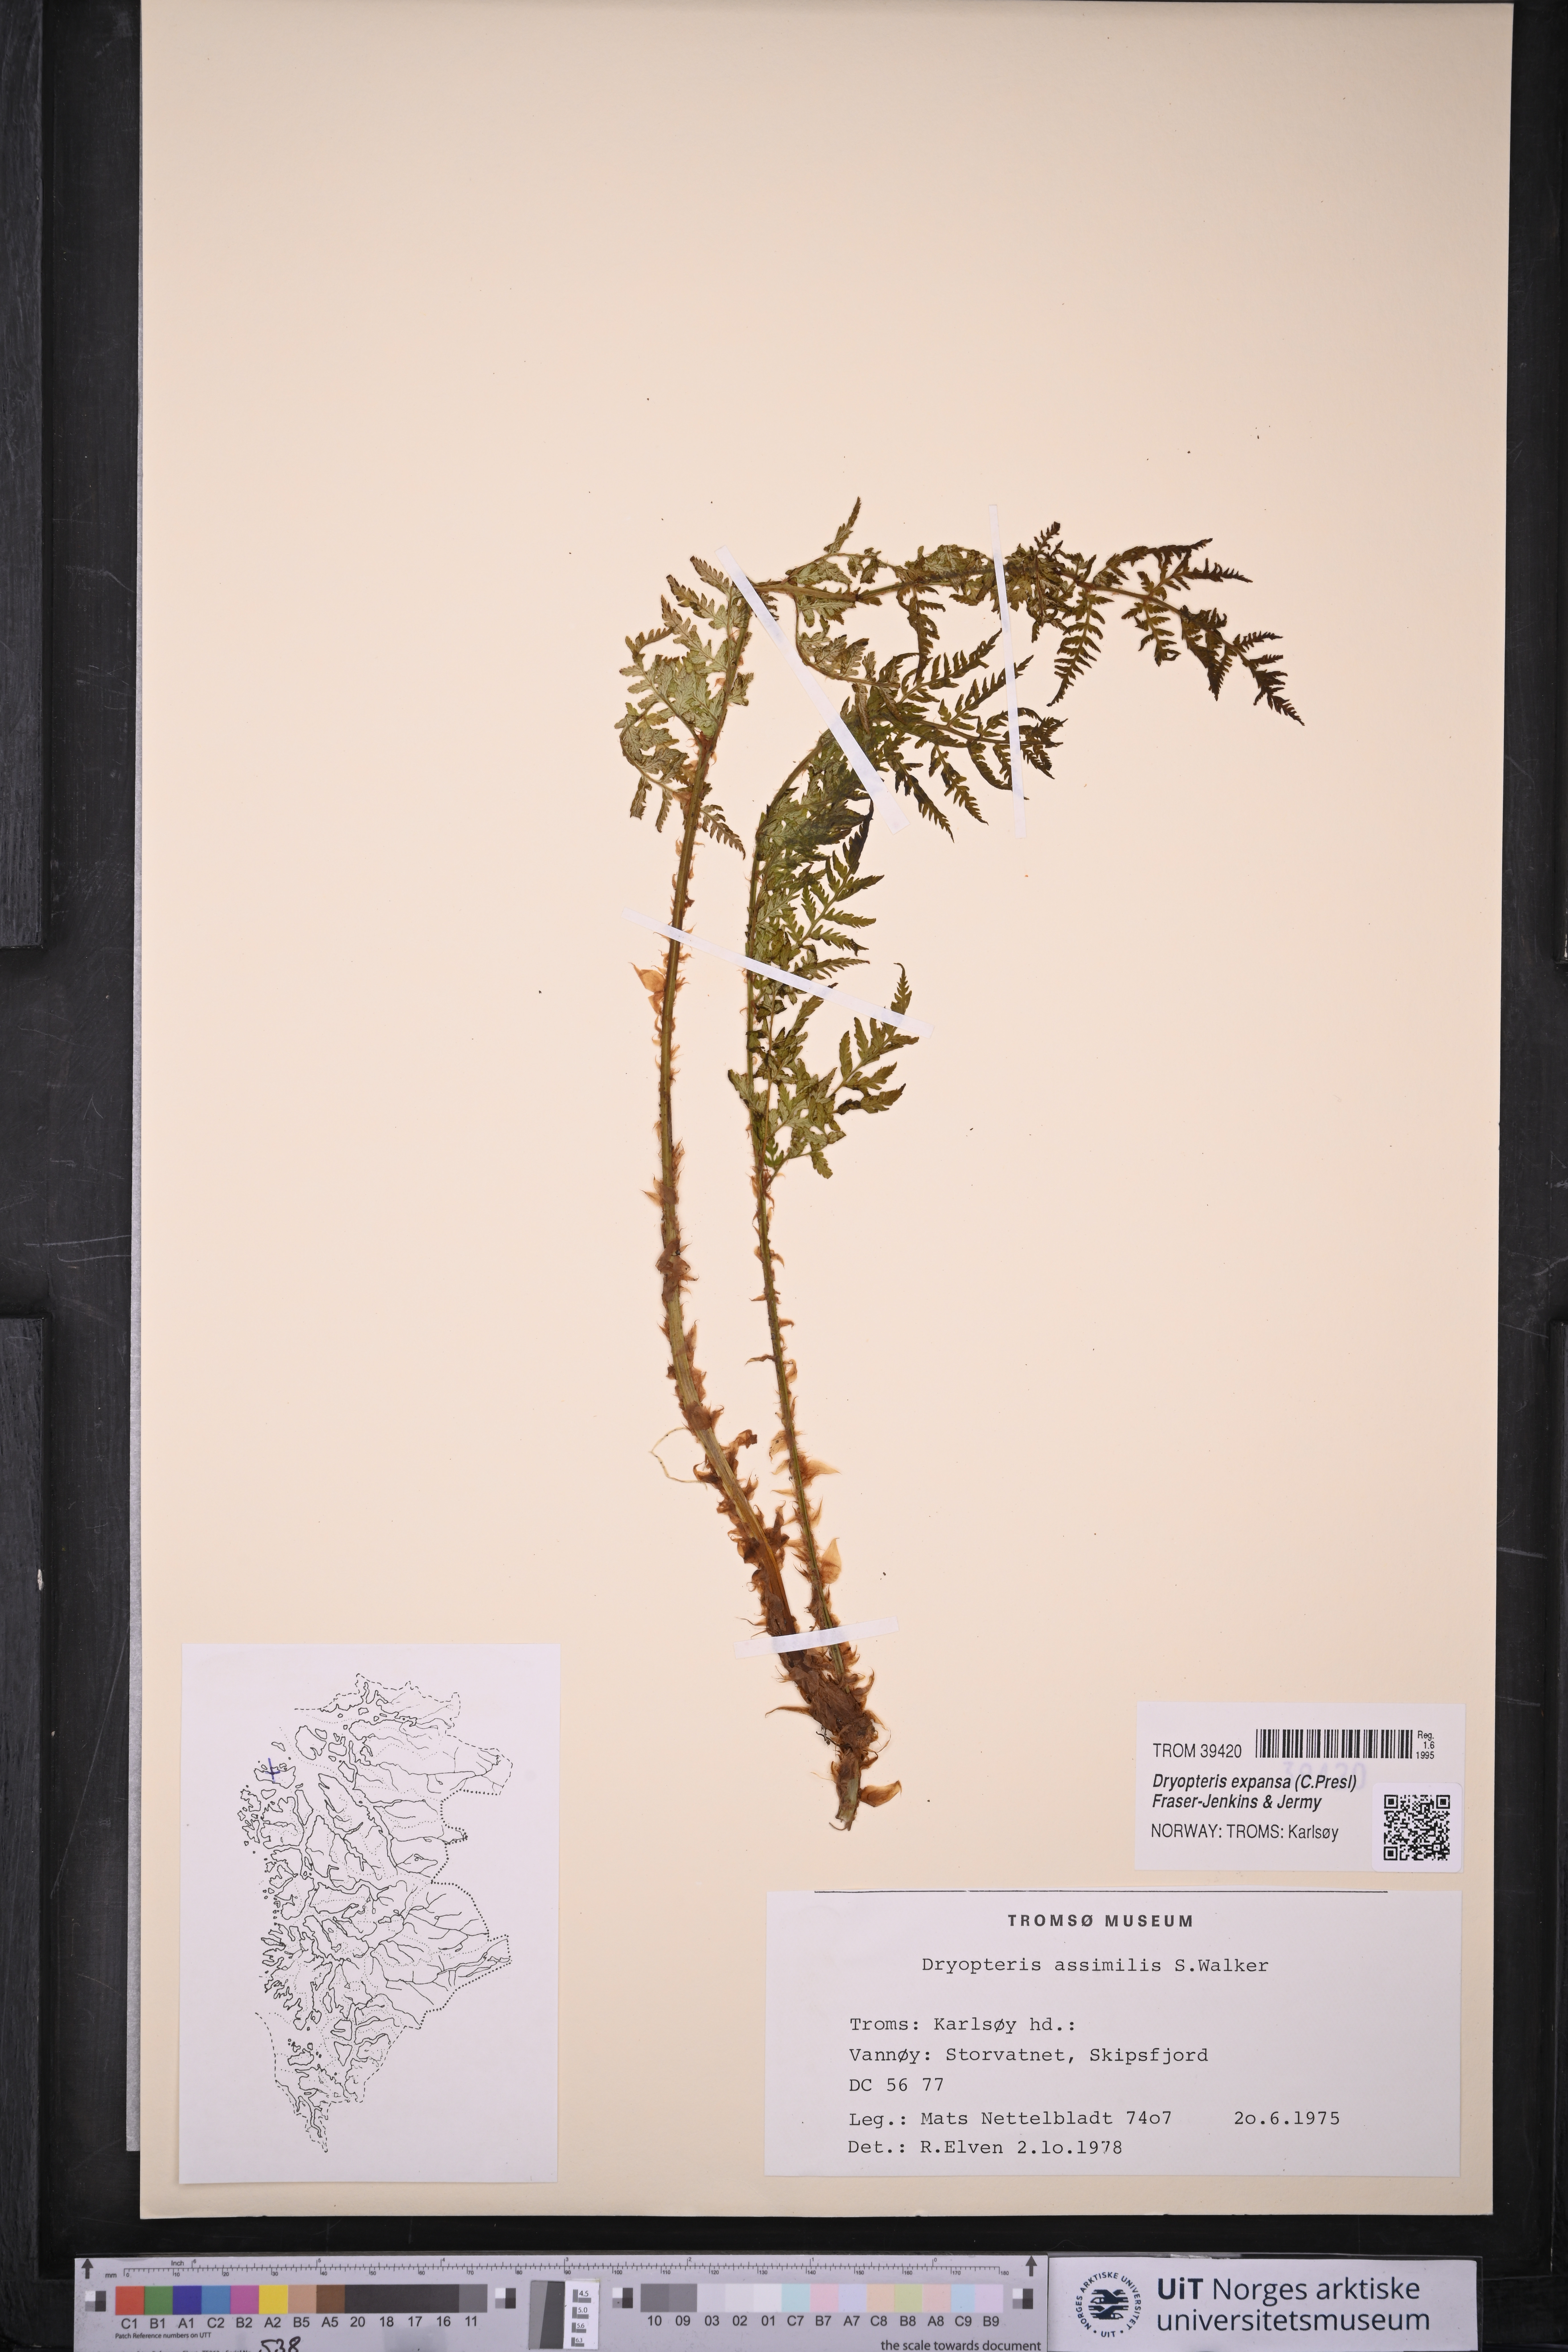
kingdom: Plantae
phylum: Tracheophyta
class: Polypodiopsida
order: Polypodiales
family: Dryopteridaceae
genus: Dryopteris
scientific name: Dryopteris expansa
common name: Northern buckler fern
